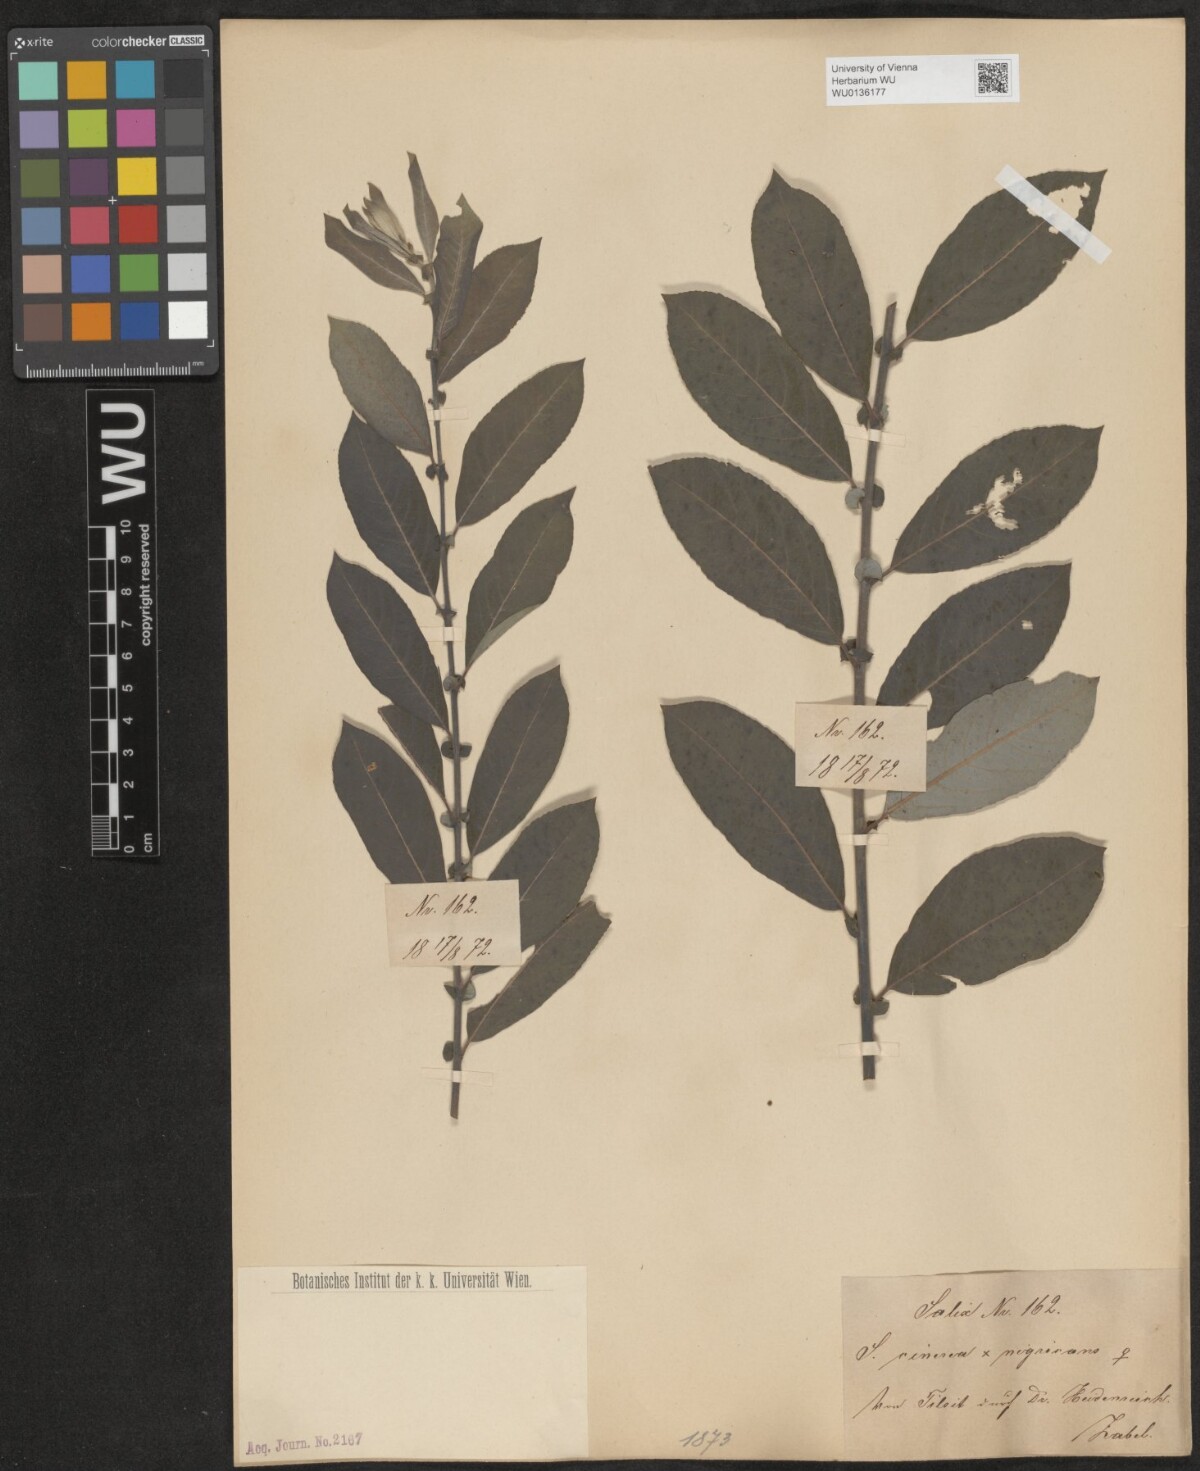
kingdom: Plantae
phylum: Tracheophyta
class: Magnoliopsida
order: Malpighiales
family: Salicaceae
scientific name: Salicaceae
